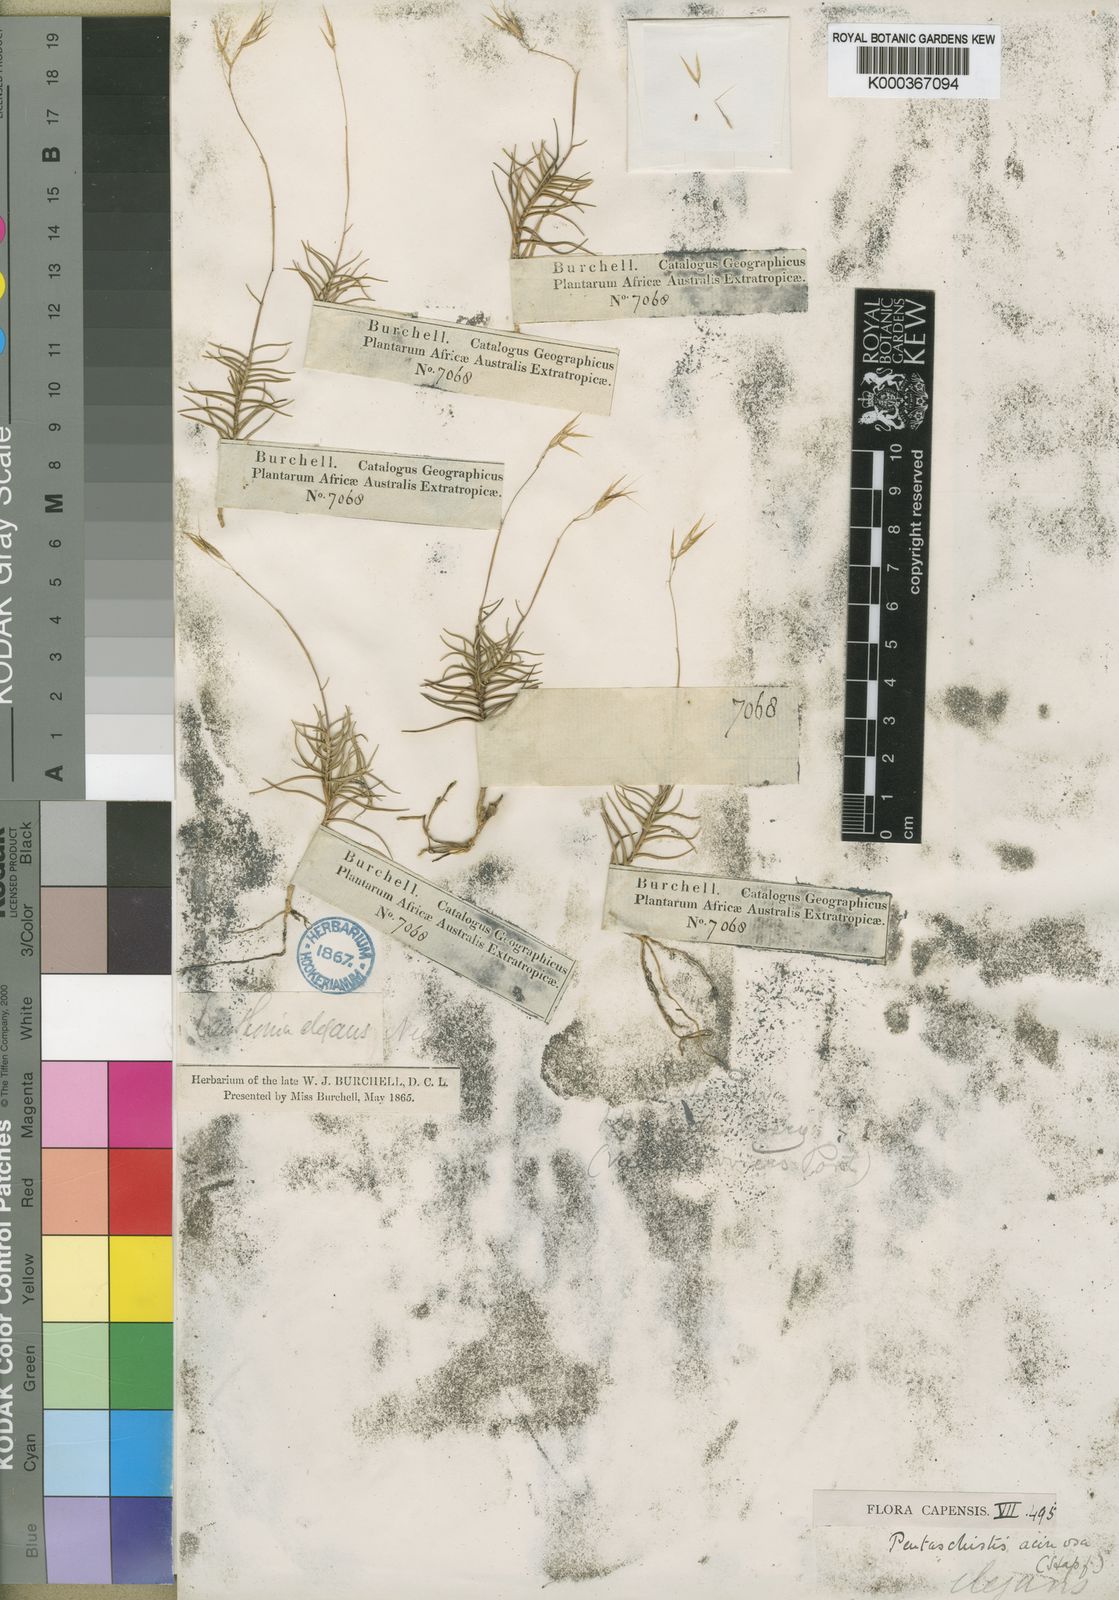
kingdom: Plantae
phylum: Tracheophyta
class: Liliopsida
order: Poales
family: Poaceae
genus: Pentameris
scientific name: Pentameris acinosa
